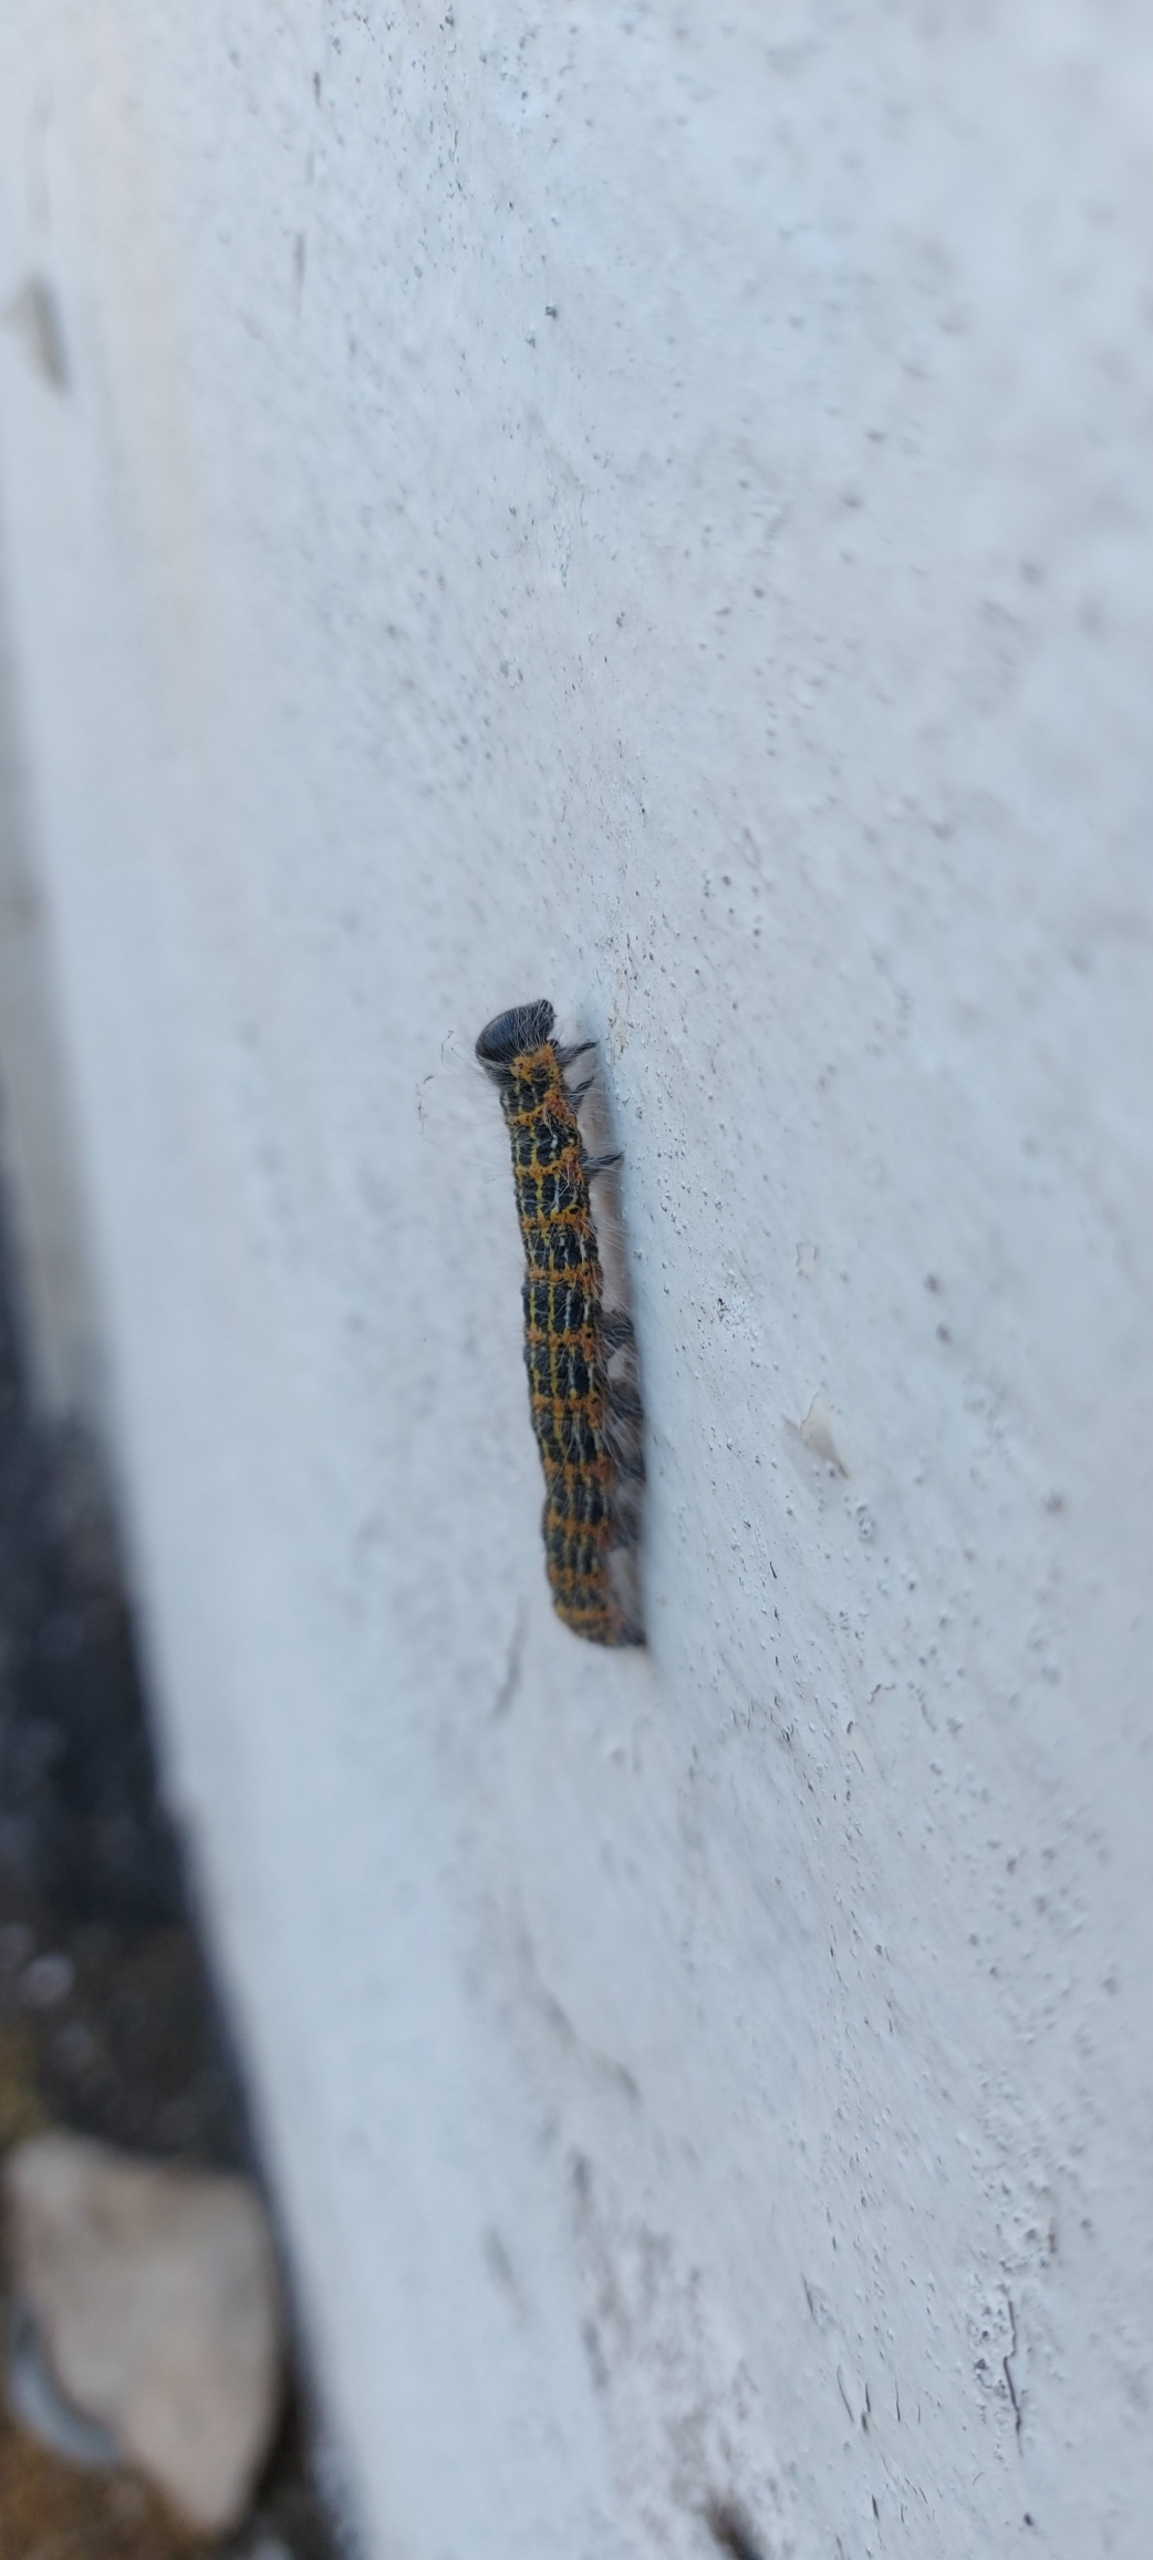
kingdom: Animalia
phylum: Arthropoda
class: Insecta
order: Lepidoptera
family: Notodontidae
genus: Phalera
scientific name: Phalera bucephala
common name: Måneplet
